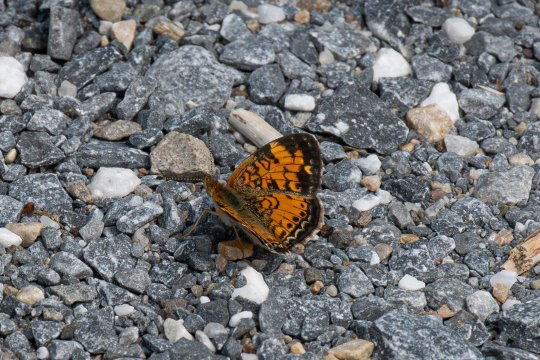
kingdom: Animalia
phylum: Arthropoda
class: Insecta
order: Lepidoptera
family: Nymphalidae
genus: Phyciodes
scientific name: Phyciodes
